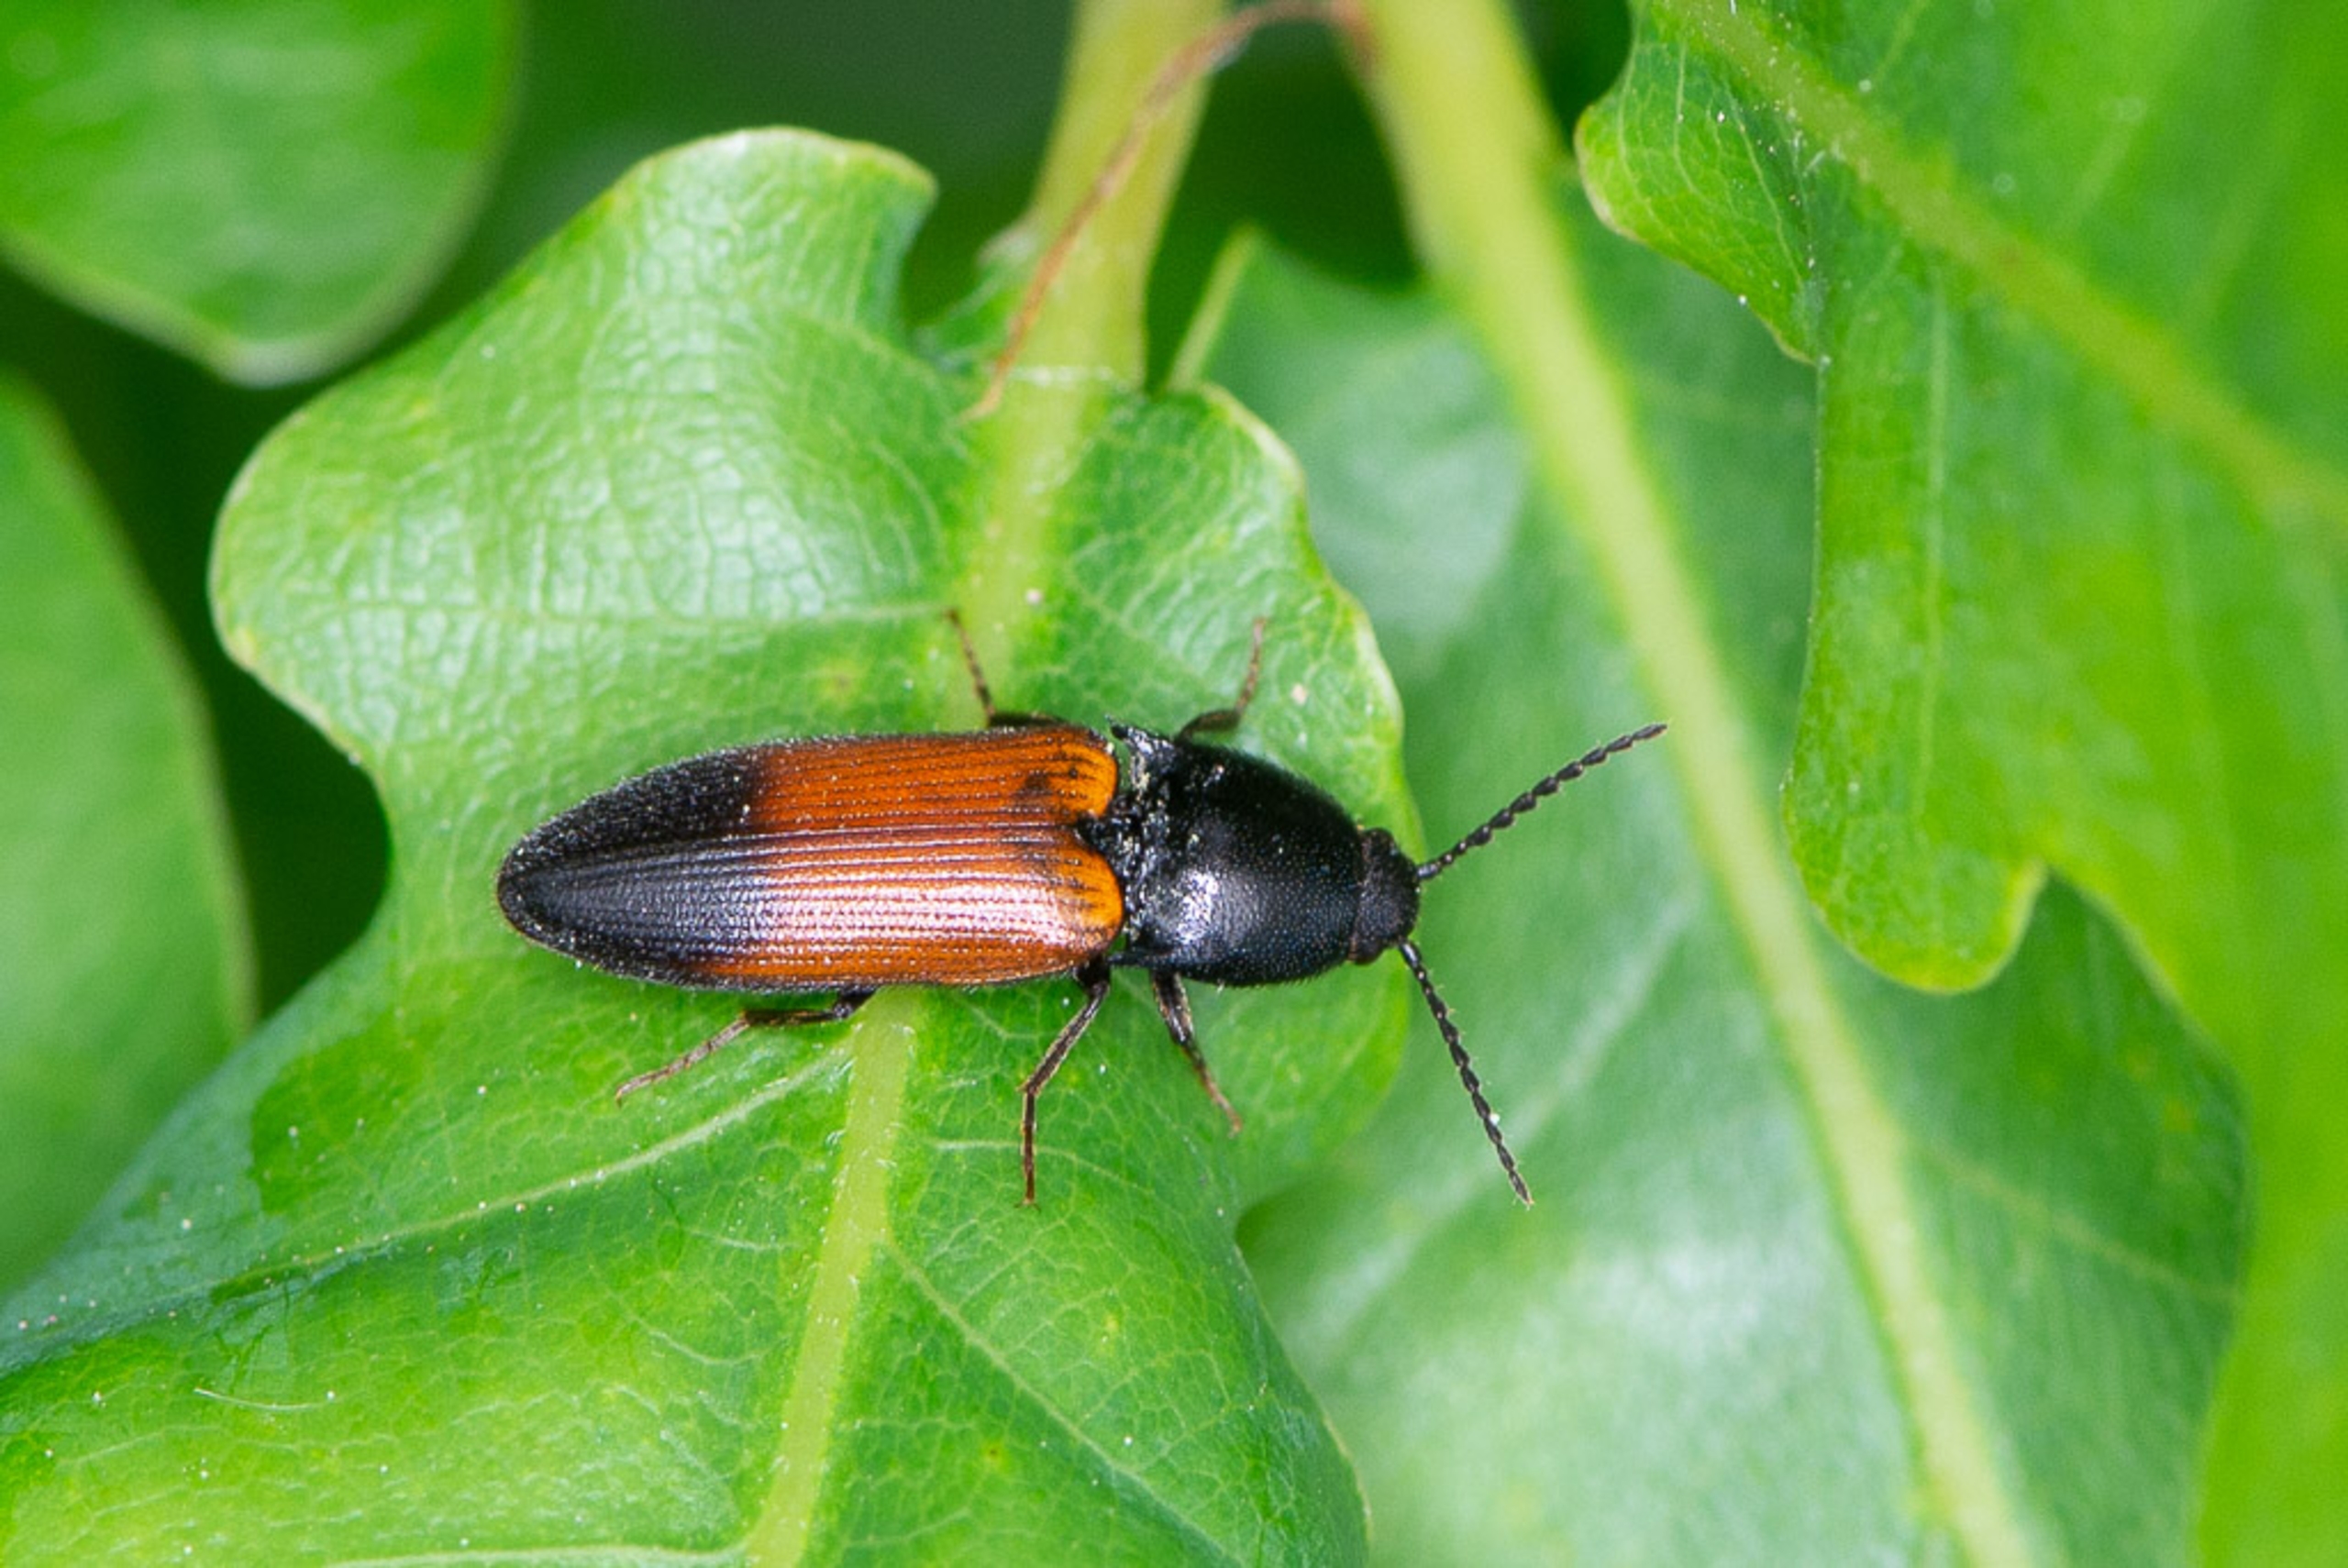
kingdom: Animalia
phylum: Arthropoda
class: Insecta
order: Coleoptera
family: Elateridae
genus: Ampedus
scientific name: Ampedus balteatus
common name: Tvefarvet skovsmælder
